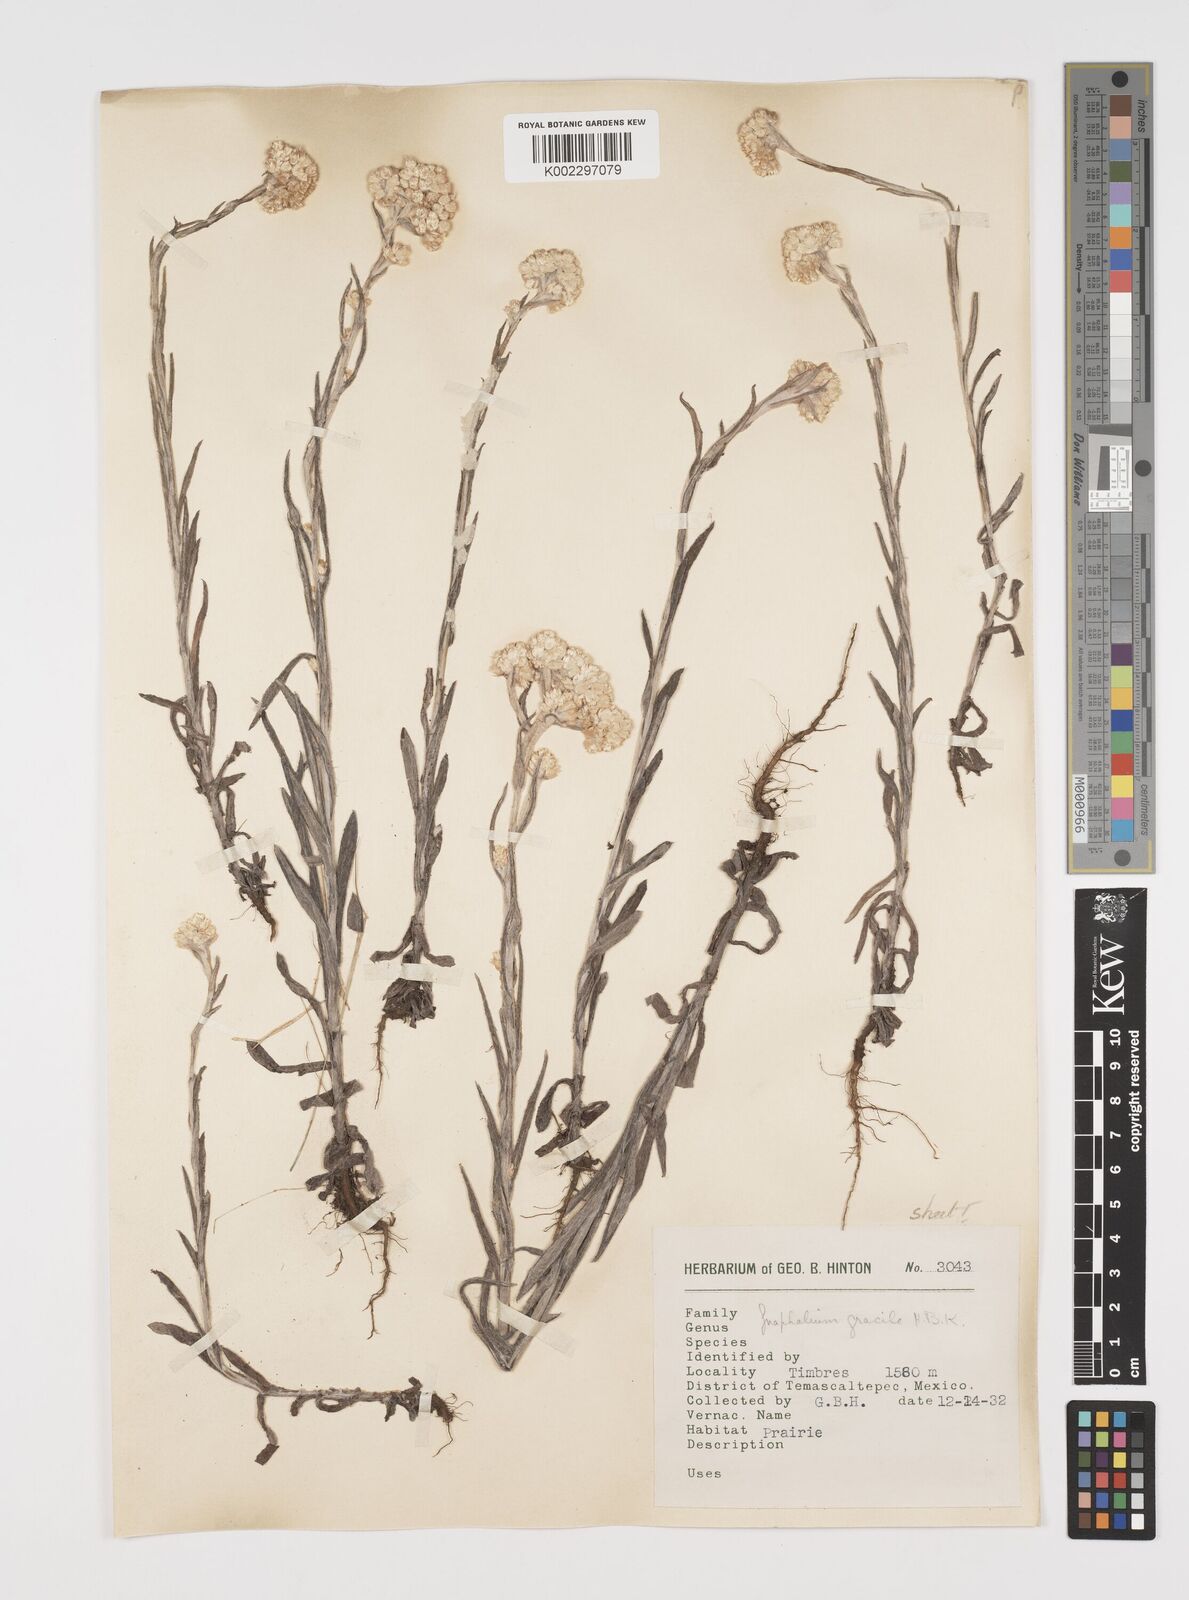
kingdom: Plantae
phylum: Tracheophyta
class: Magnoliopsida
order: Asterales
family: Asteraceae
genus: Pseudognaphalium
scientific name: Pseudognaphalium
